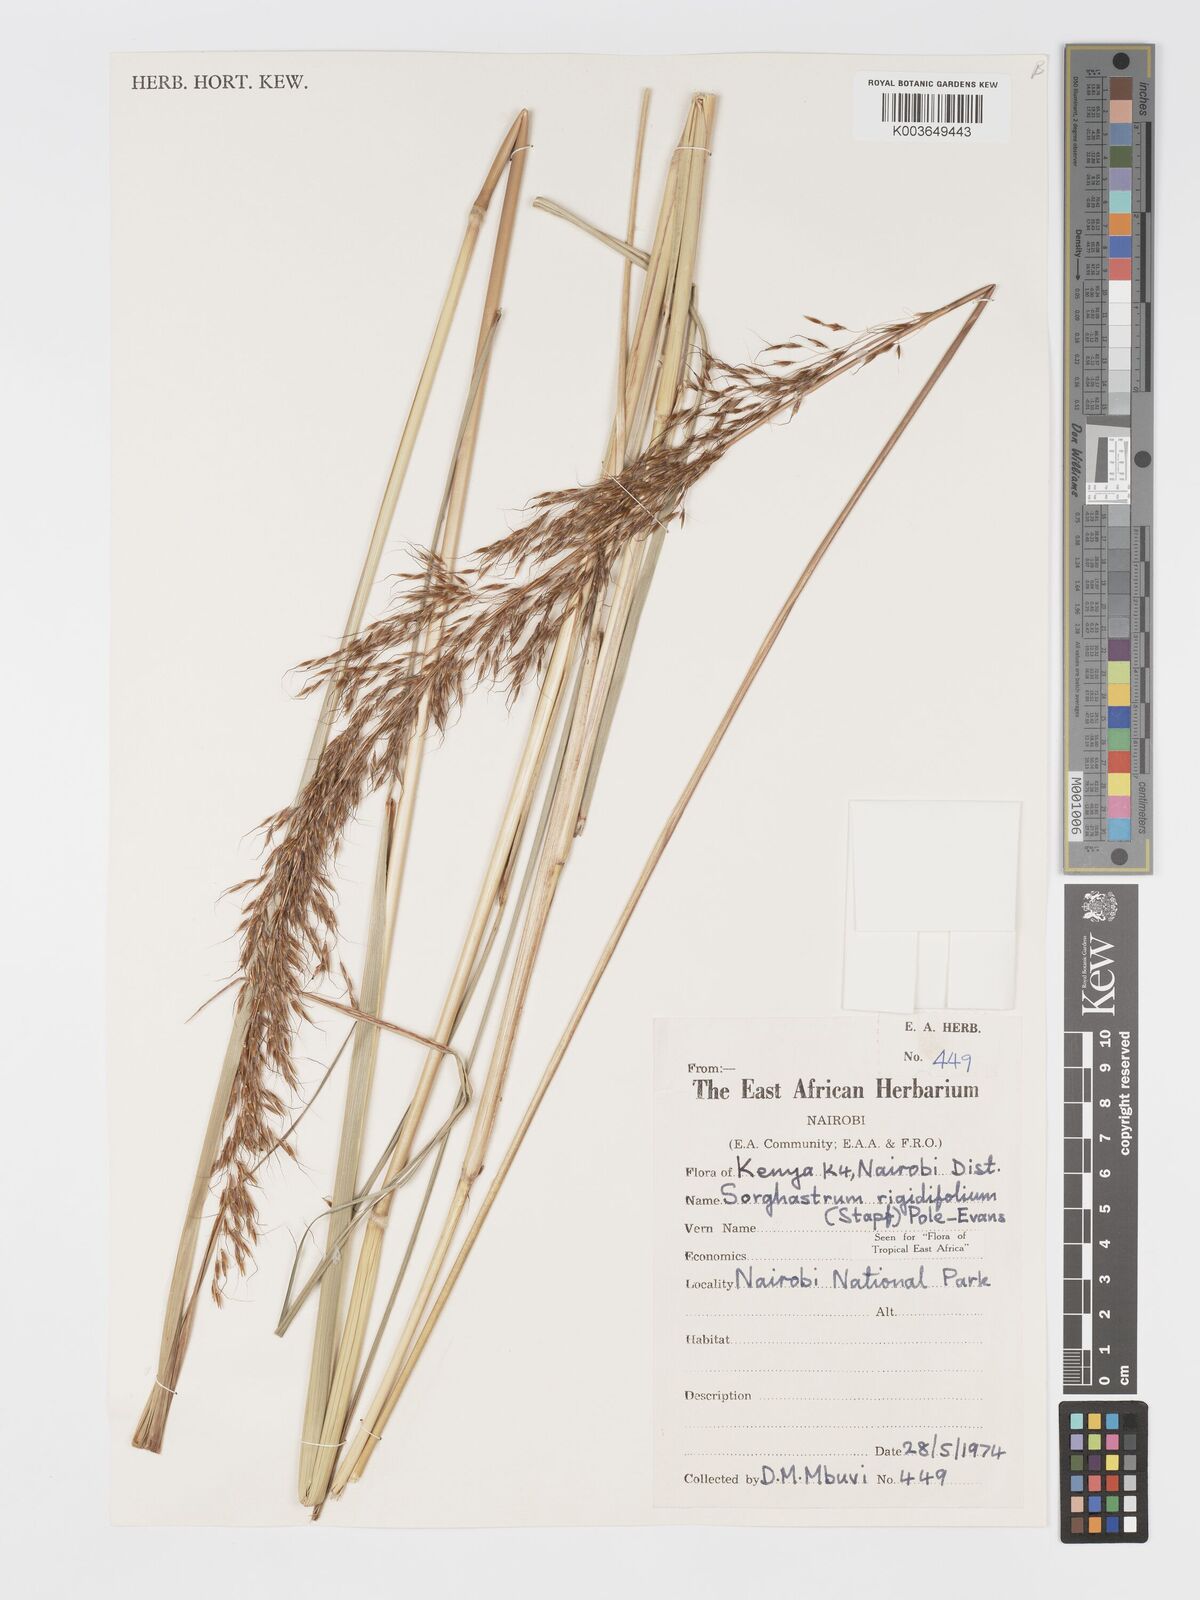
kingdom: Plantae
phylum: Tracheophyta
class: Liliopsida
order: Poales
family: Poaceae
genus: Sorghastrum
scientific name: Sorghastrum stipoides
